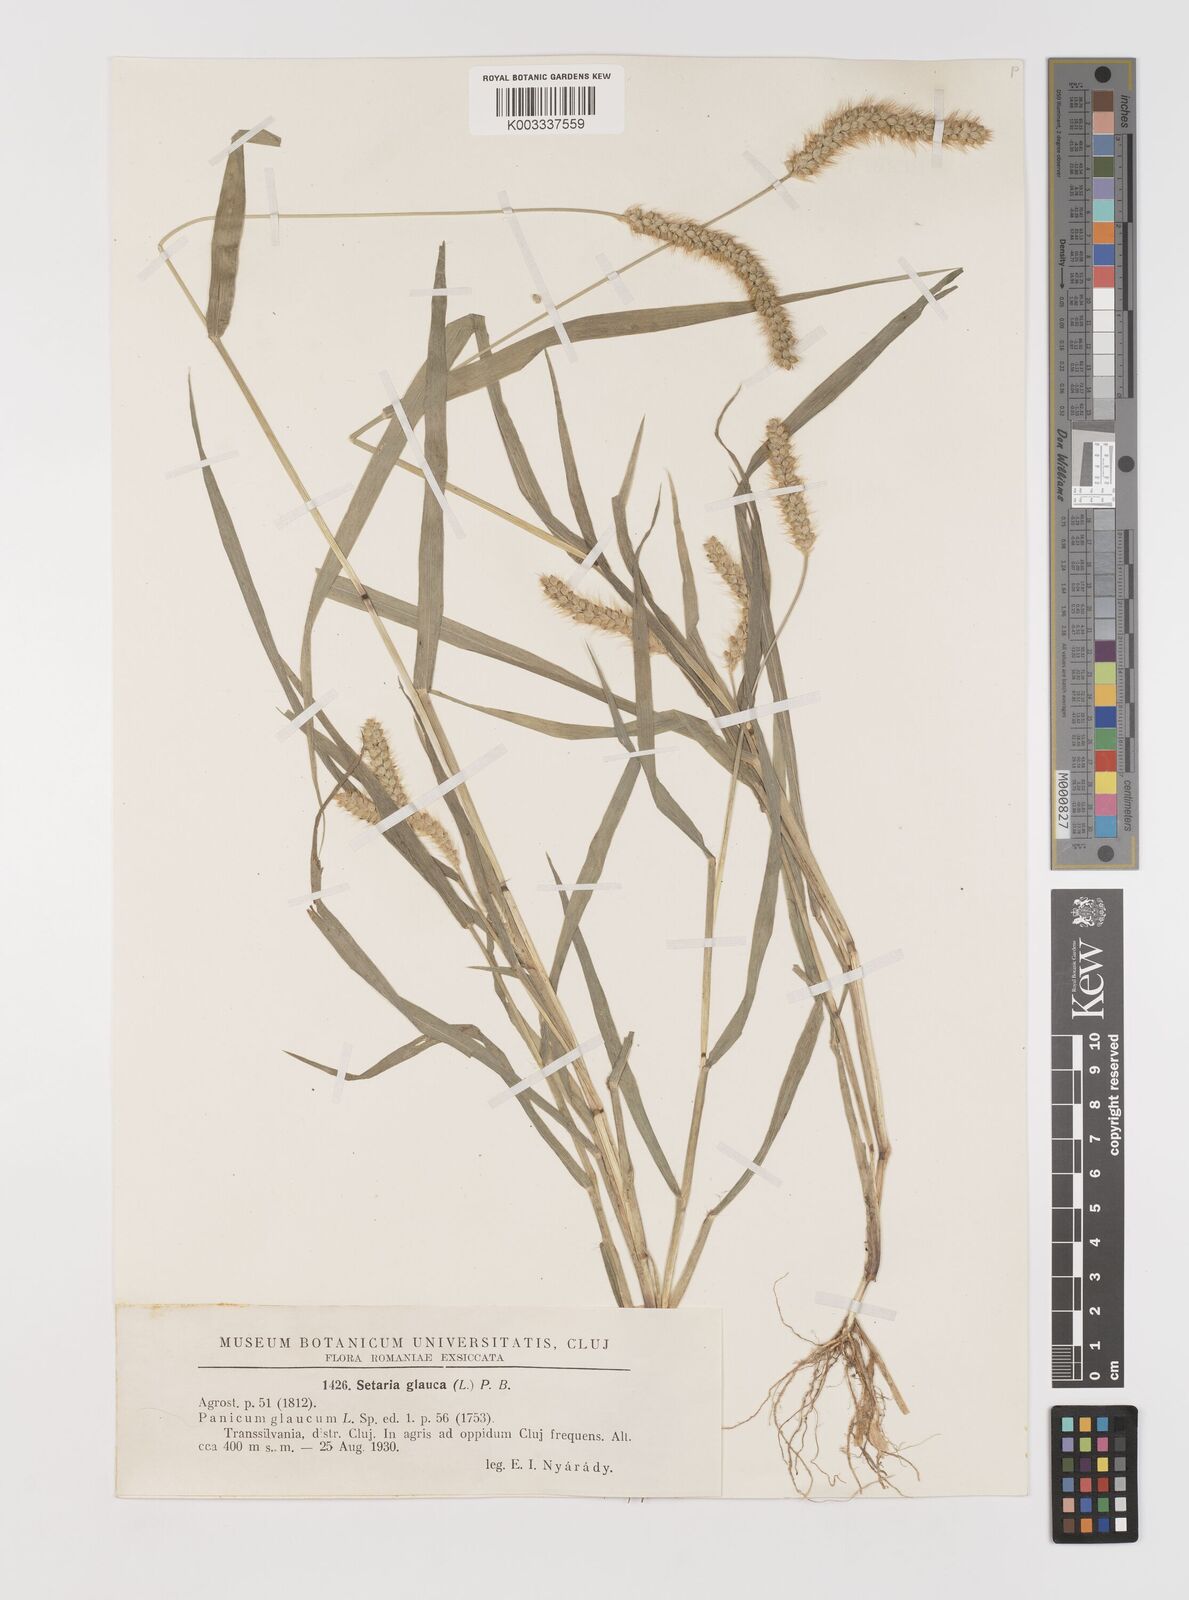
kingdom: Plantae
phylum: Tracheophyta
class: Liliopsida
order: Poales
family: Poaceae
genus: Setaria
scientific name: Setaria pumila
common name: Yellow bristle-grass
